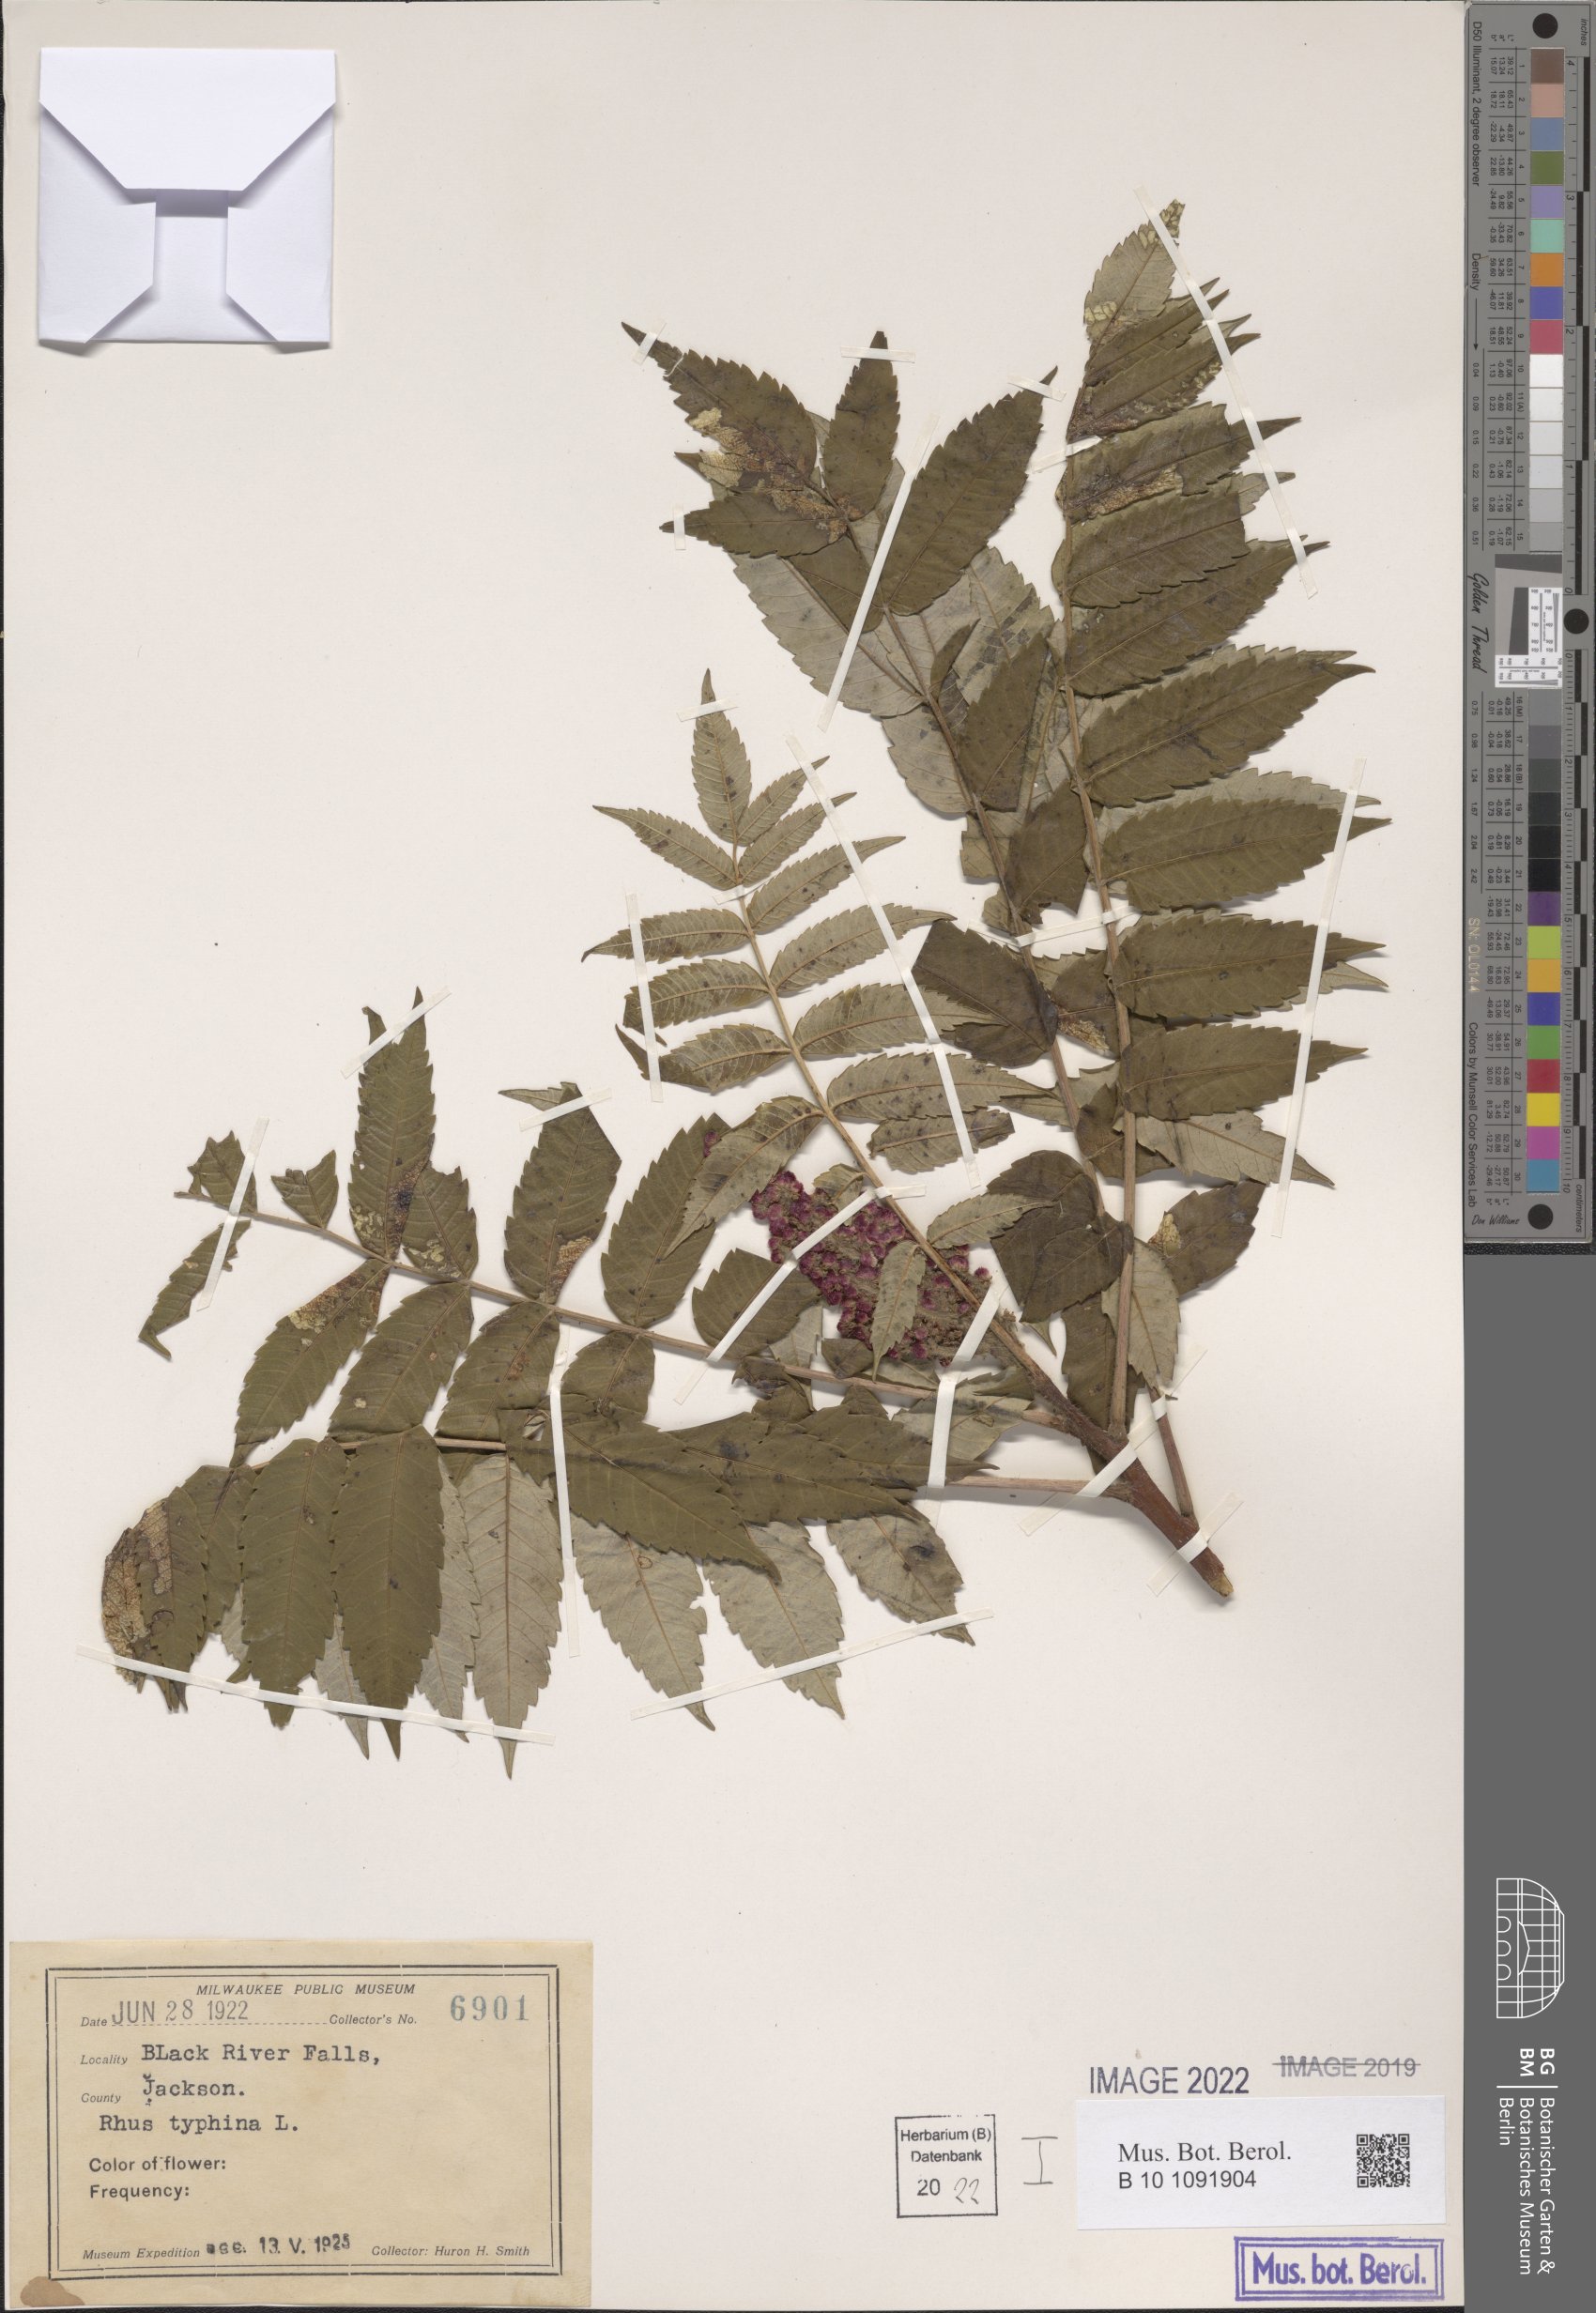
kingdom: Plantae
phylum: Tracheophyta
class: Magnoliopsida
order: Sapindales
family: Anacardiaceae
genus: Rhus
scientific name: Rhus typhina
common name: Staghorn sumac
